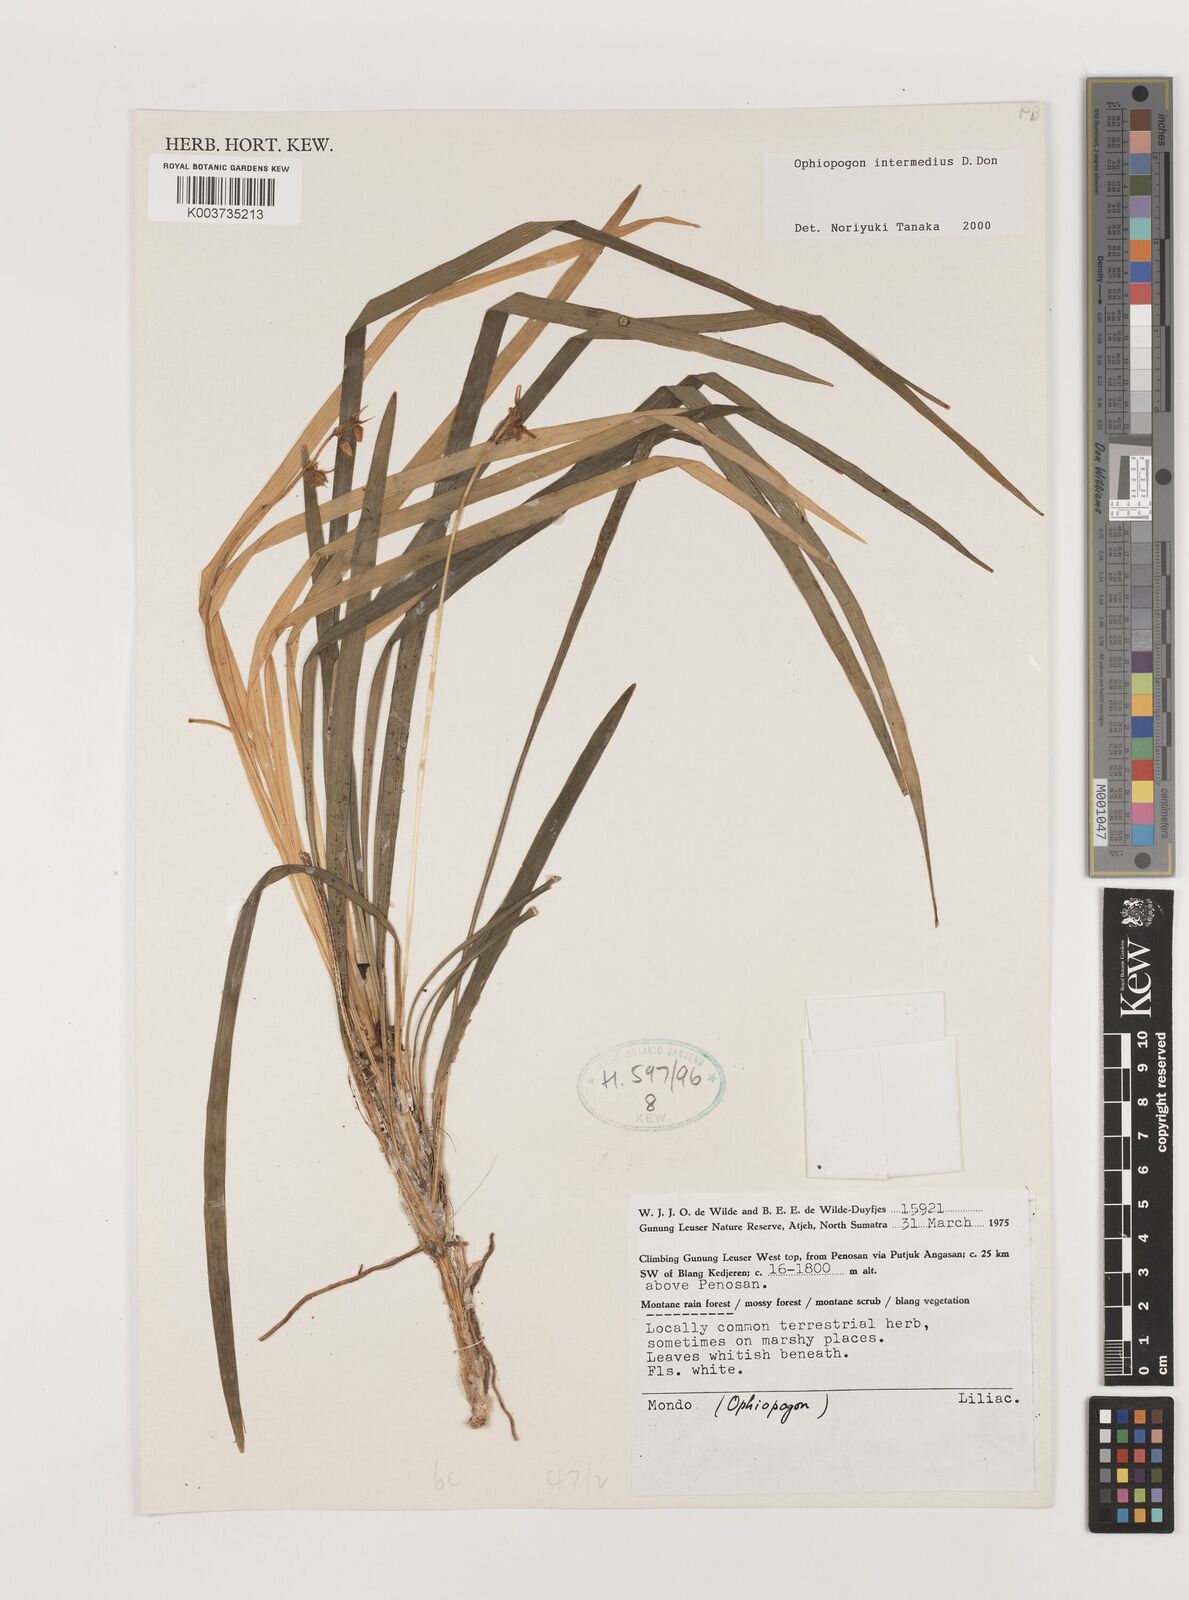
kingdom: Plantae
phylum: Tracheophyta
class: Liliopsida
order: Asparagales
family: Asparagaceae
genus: Ophiopogon
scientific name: Ophiopogon intermedius
